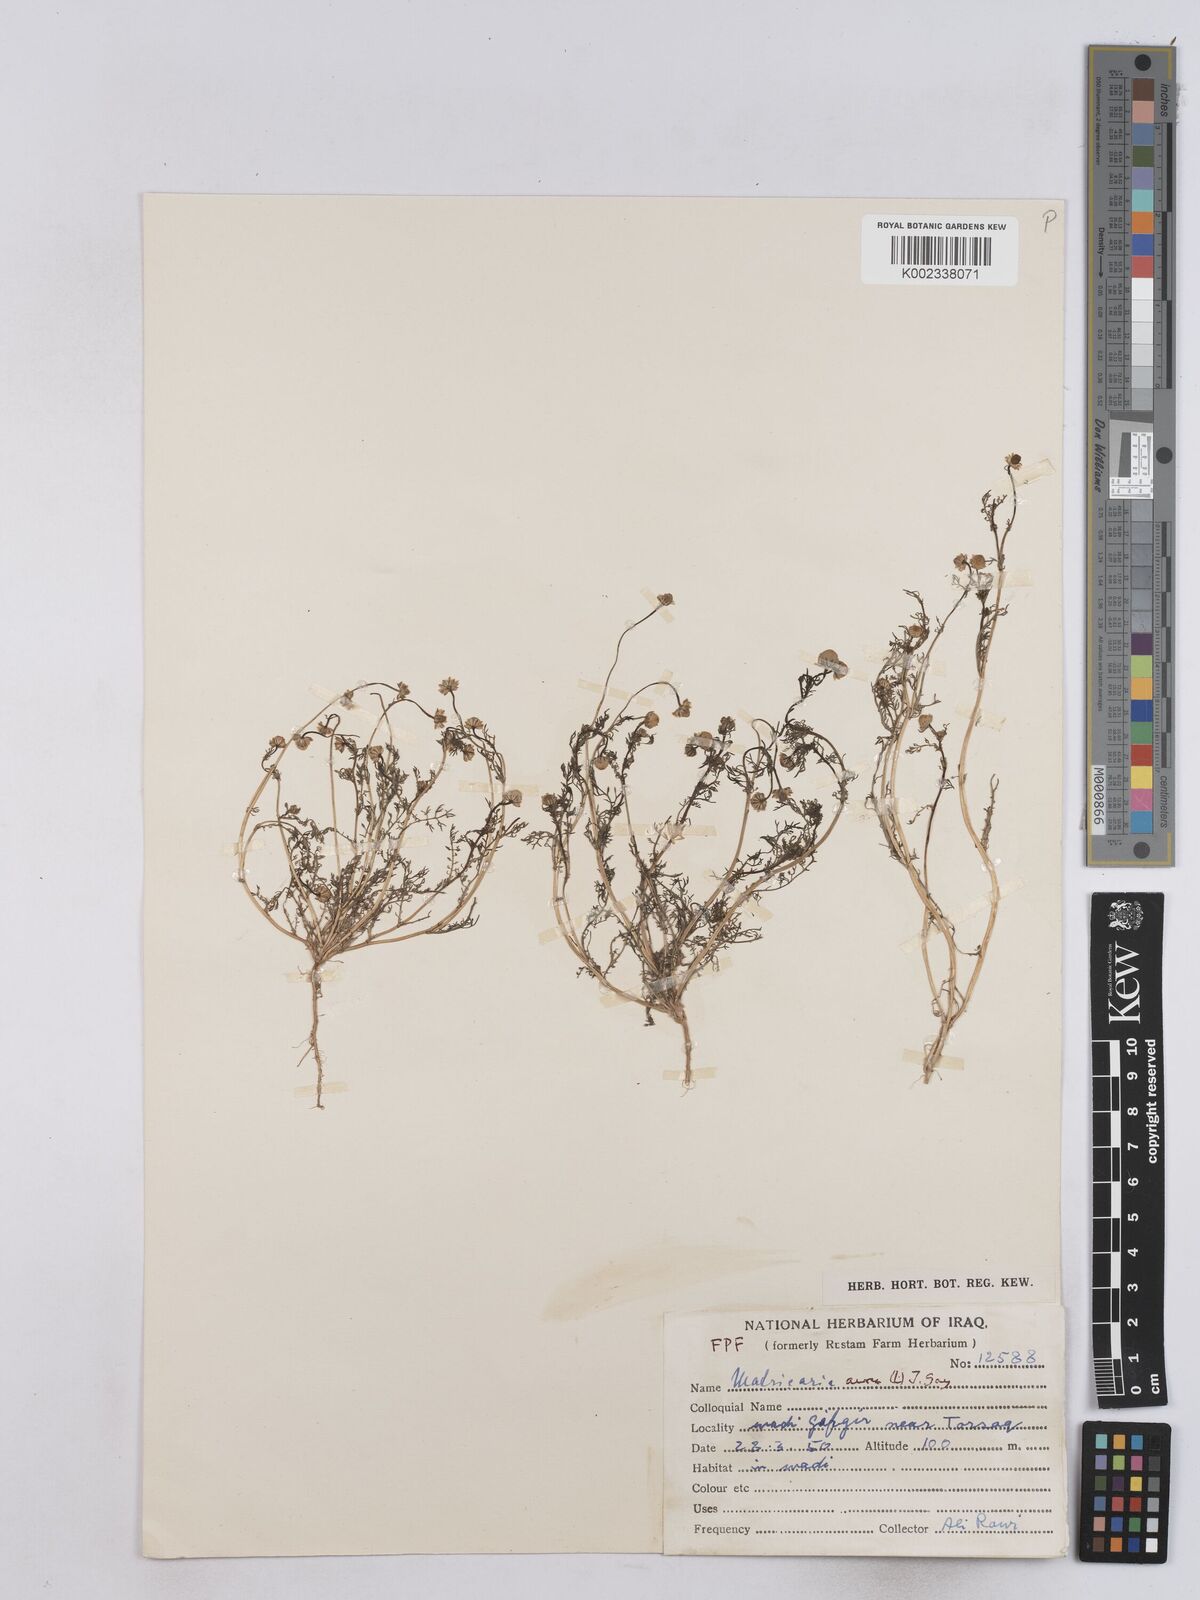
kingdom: Plantae
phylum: Tracheophyta
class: Magnoliopsida
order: Asterales
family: Asteraceae
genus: Matricaria
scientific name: Matricaria aurea
